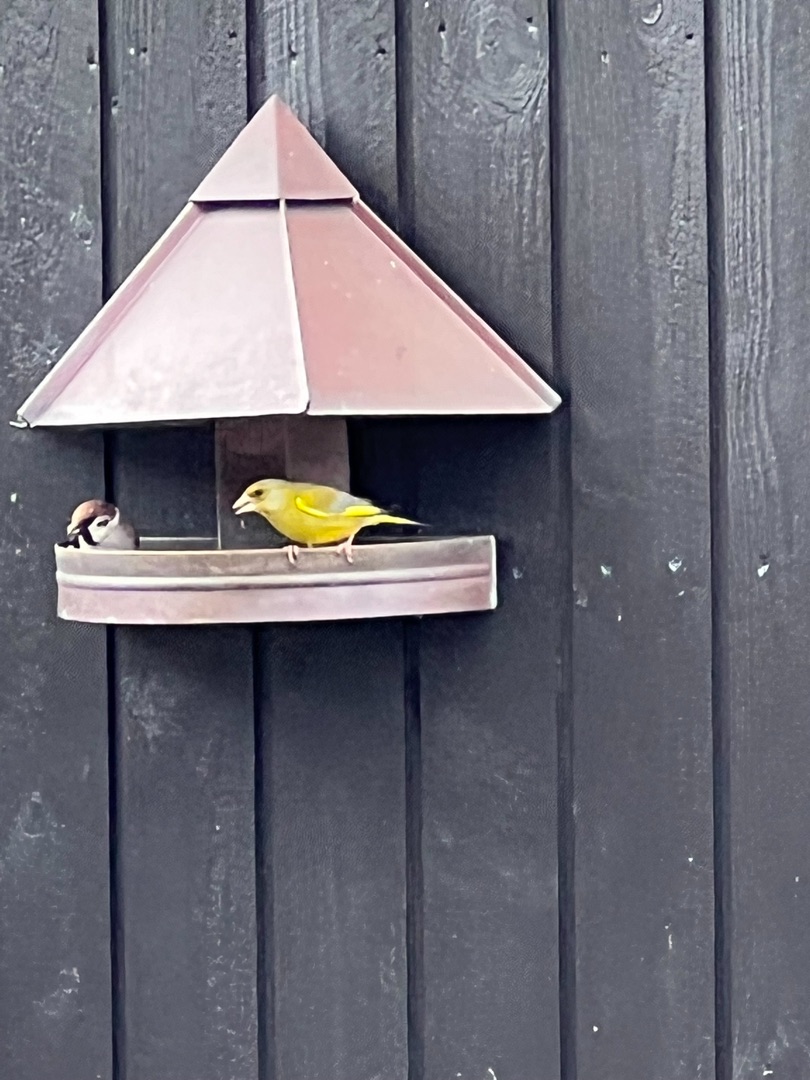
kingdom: Plantae
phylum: Tracheophyta
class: Liliopsida
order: Poales
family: Poaceae
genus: Chloris
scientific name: Chloris chloris
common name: Grønirisk
